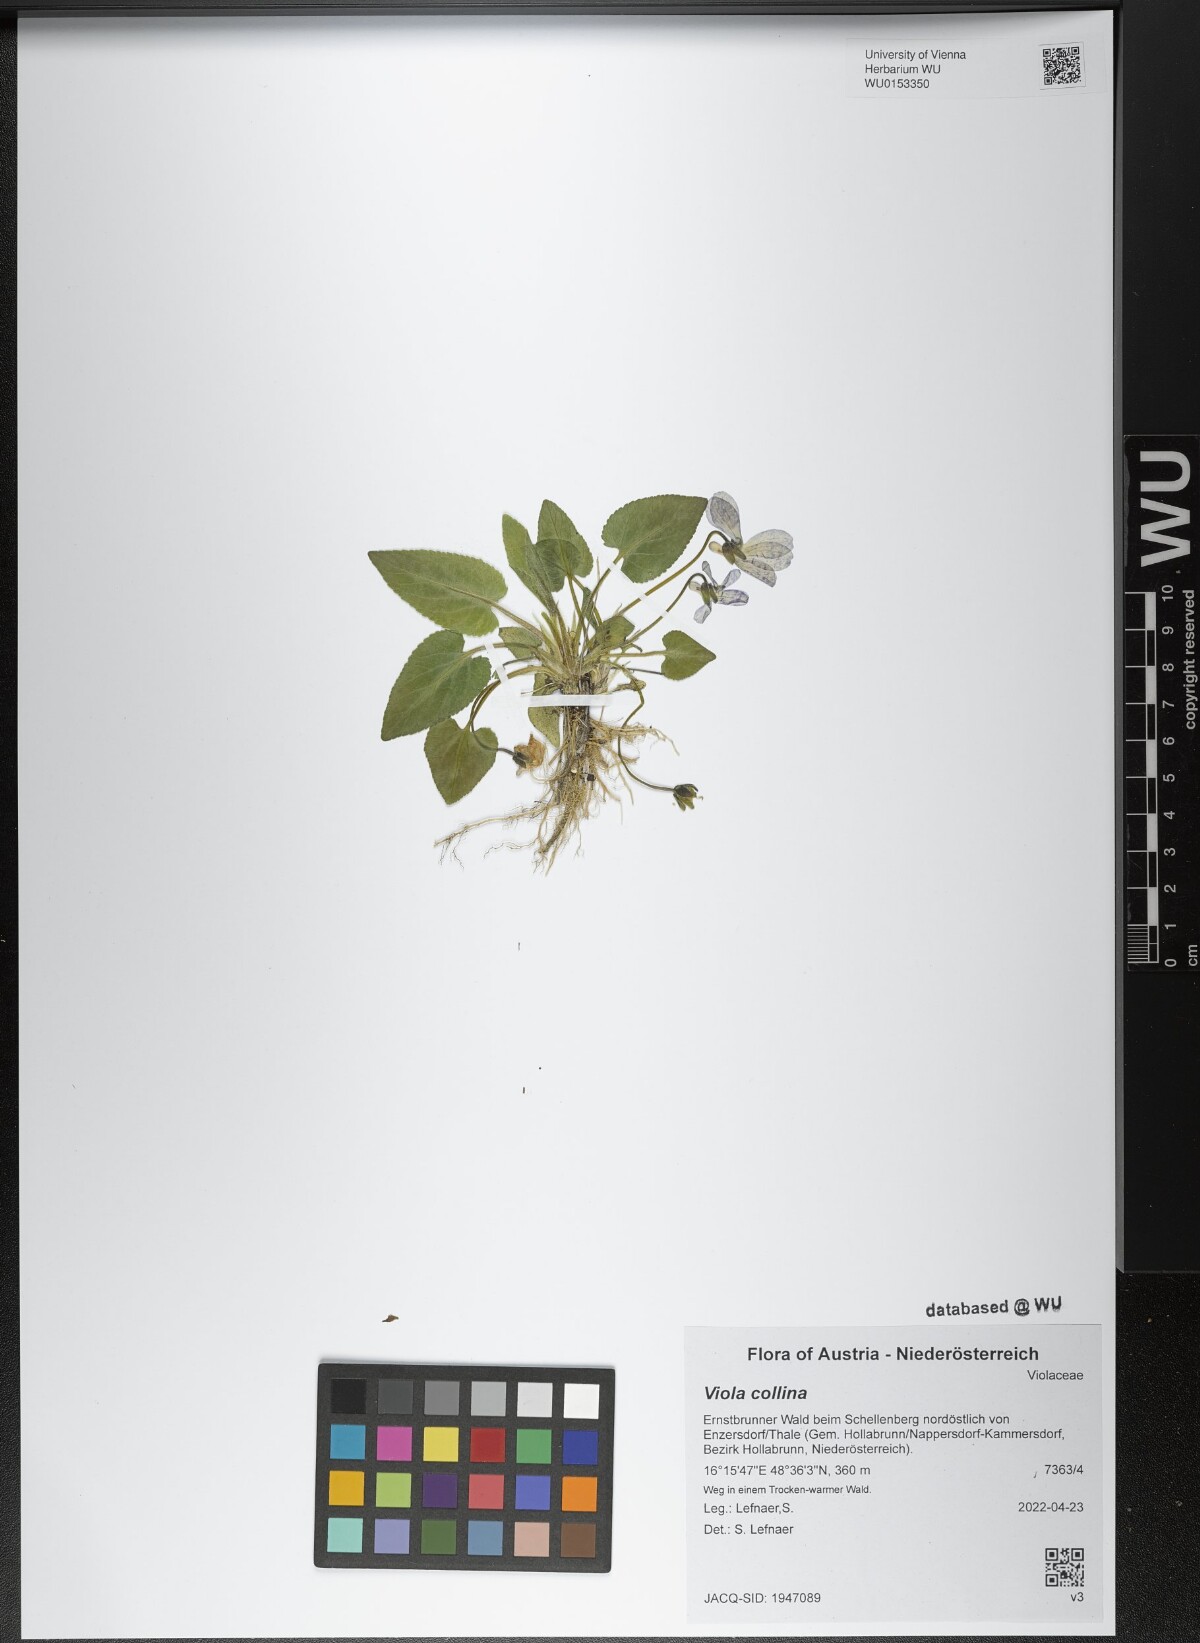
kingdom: Plantae
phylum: Tracheophyta
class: Magnoliopsida
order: Malpighiales
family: Violaceae
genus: Viola
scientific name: Viola collina
